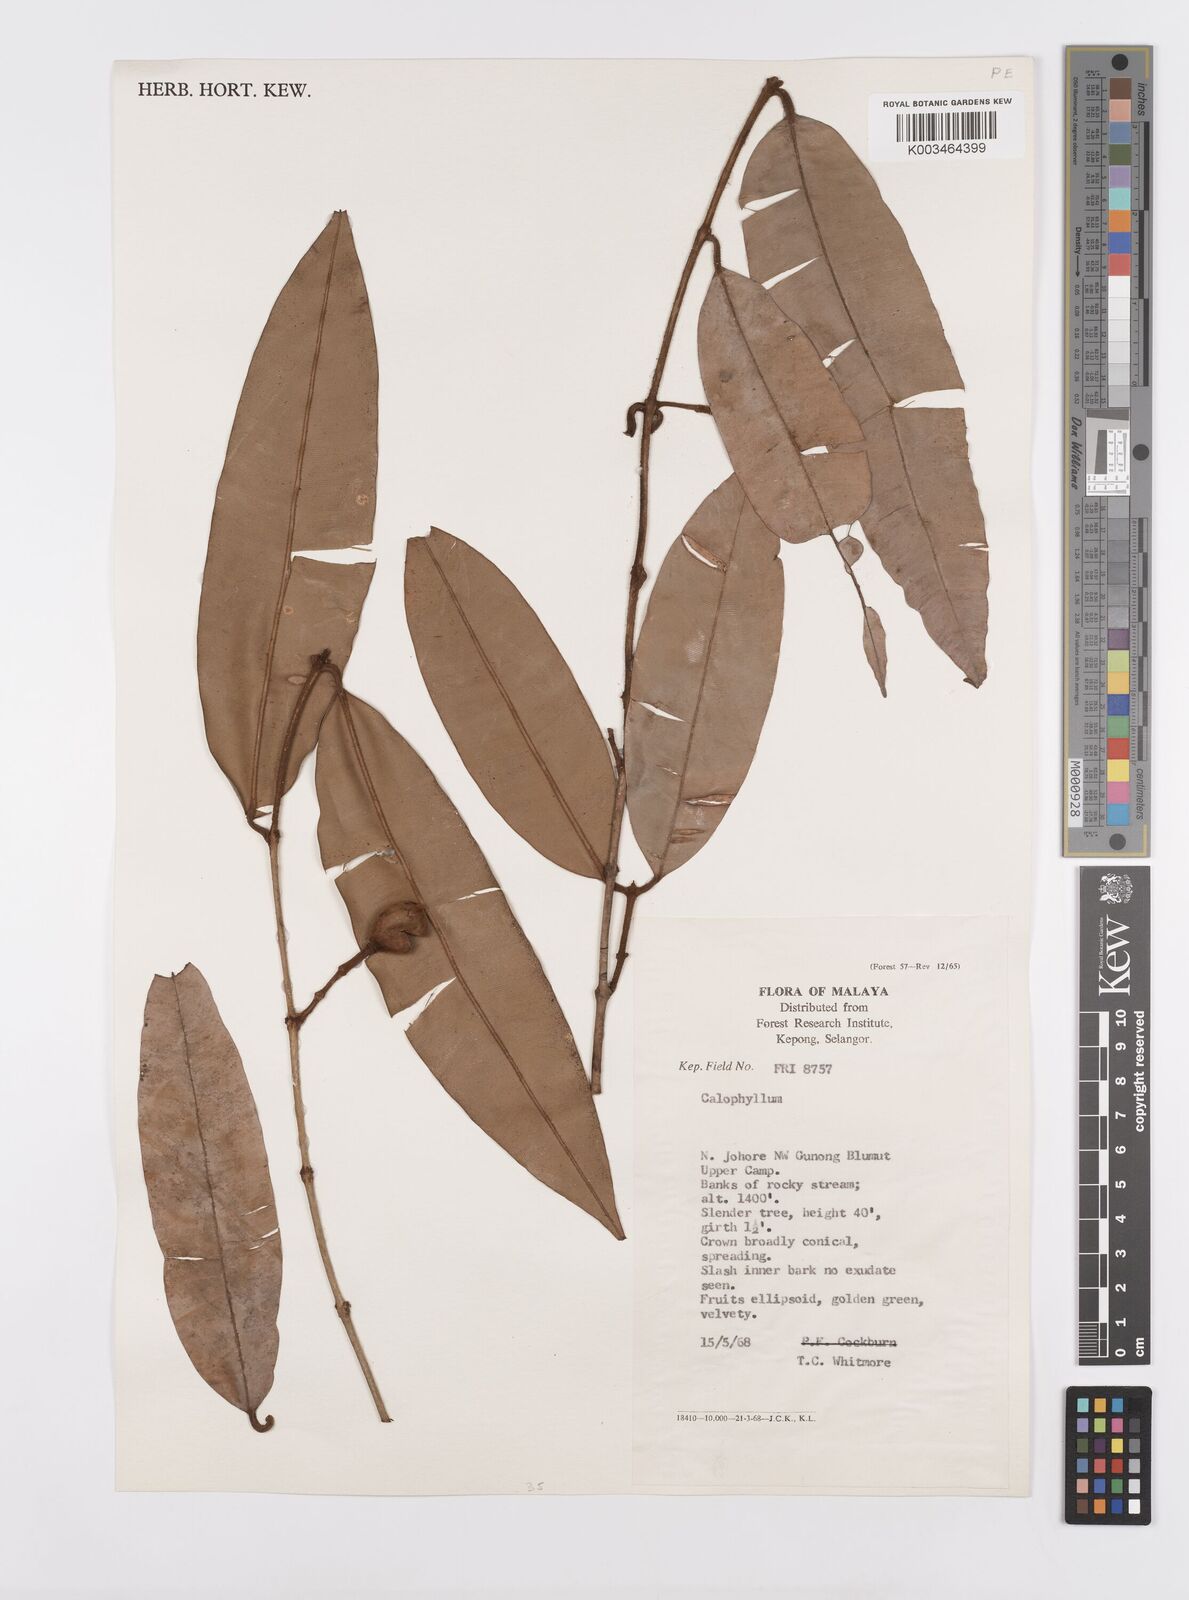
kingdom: Plantae
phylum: Tracheophyta
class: Magnoliopsida
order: Malpighiales
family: Calophyllaceae
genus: Calophyllum
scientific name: Calophyllum molle
